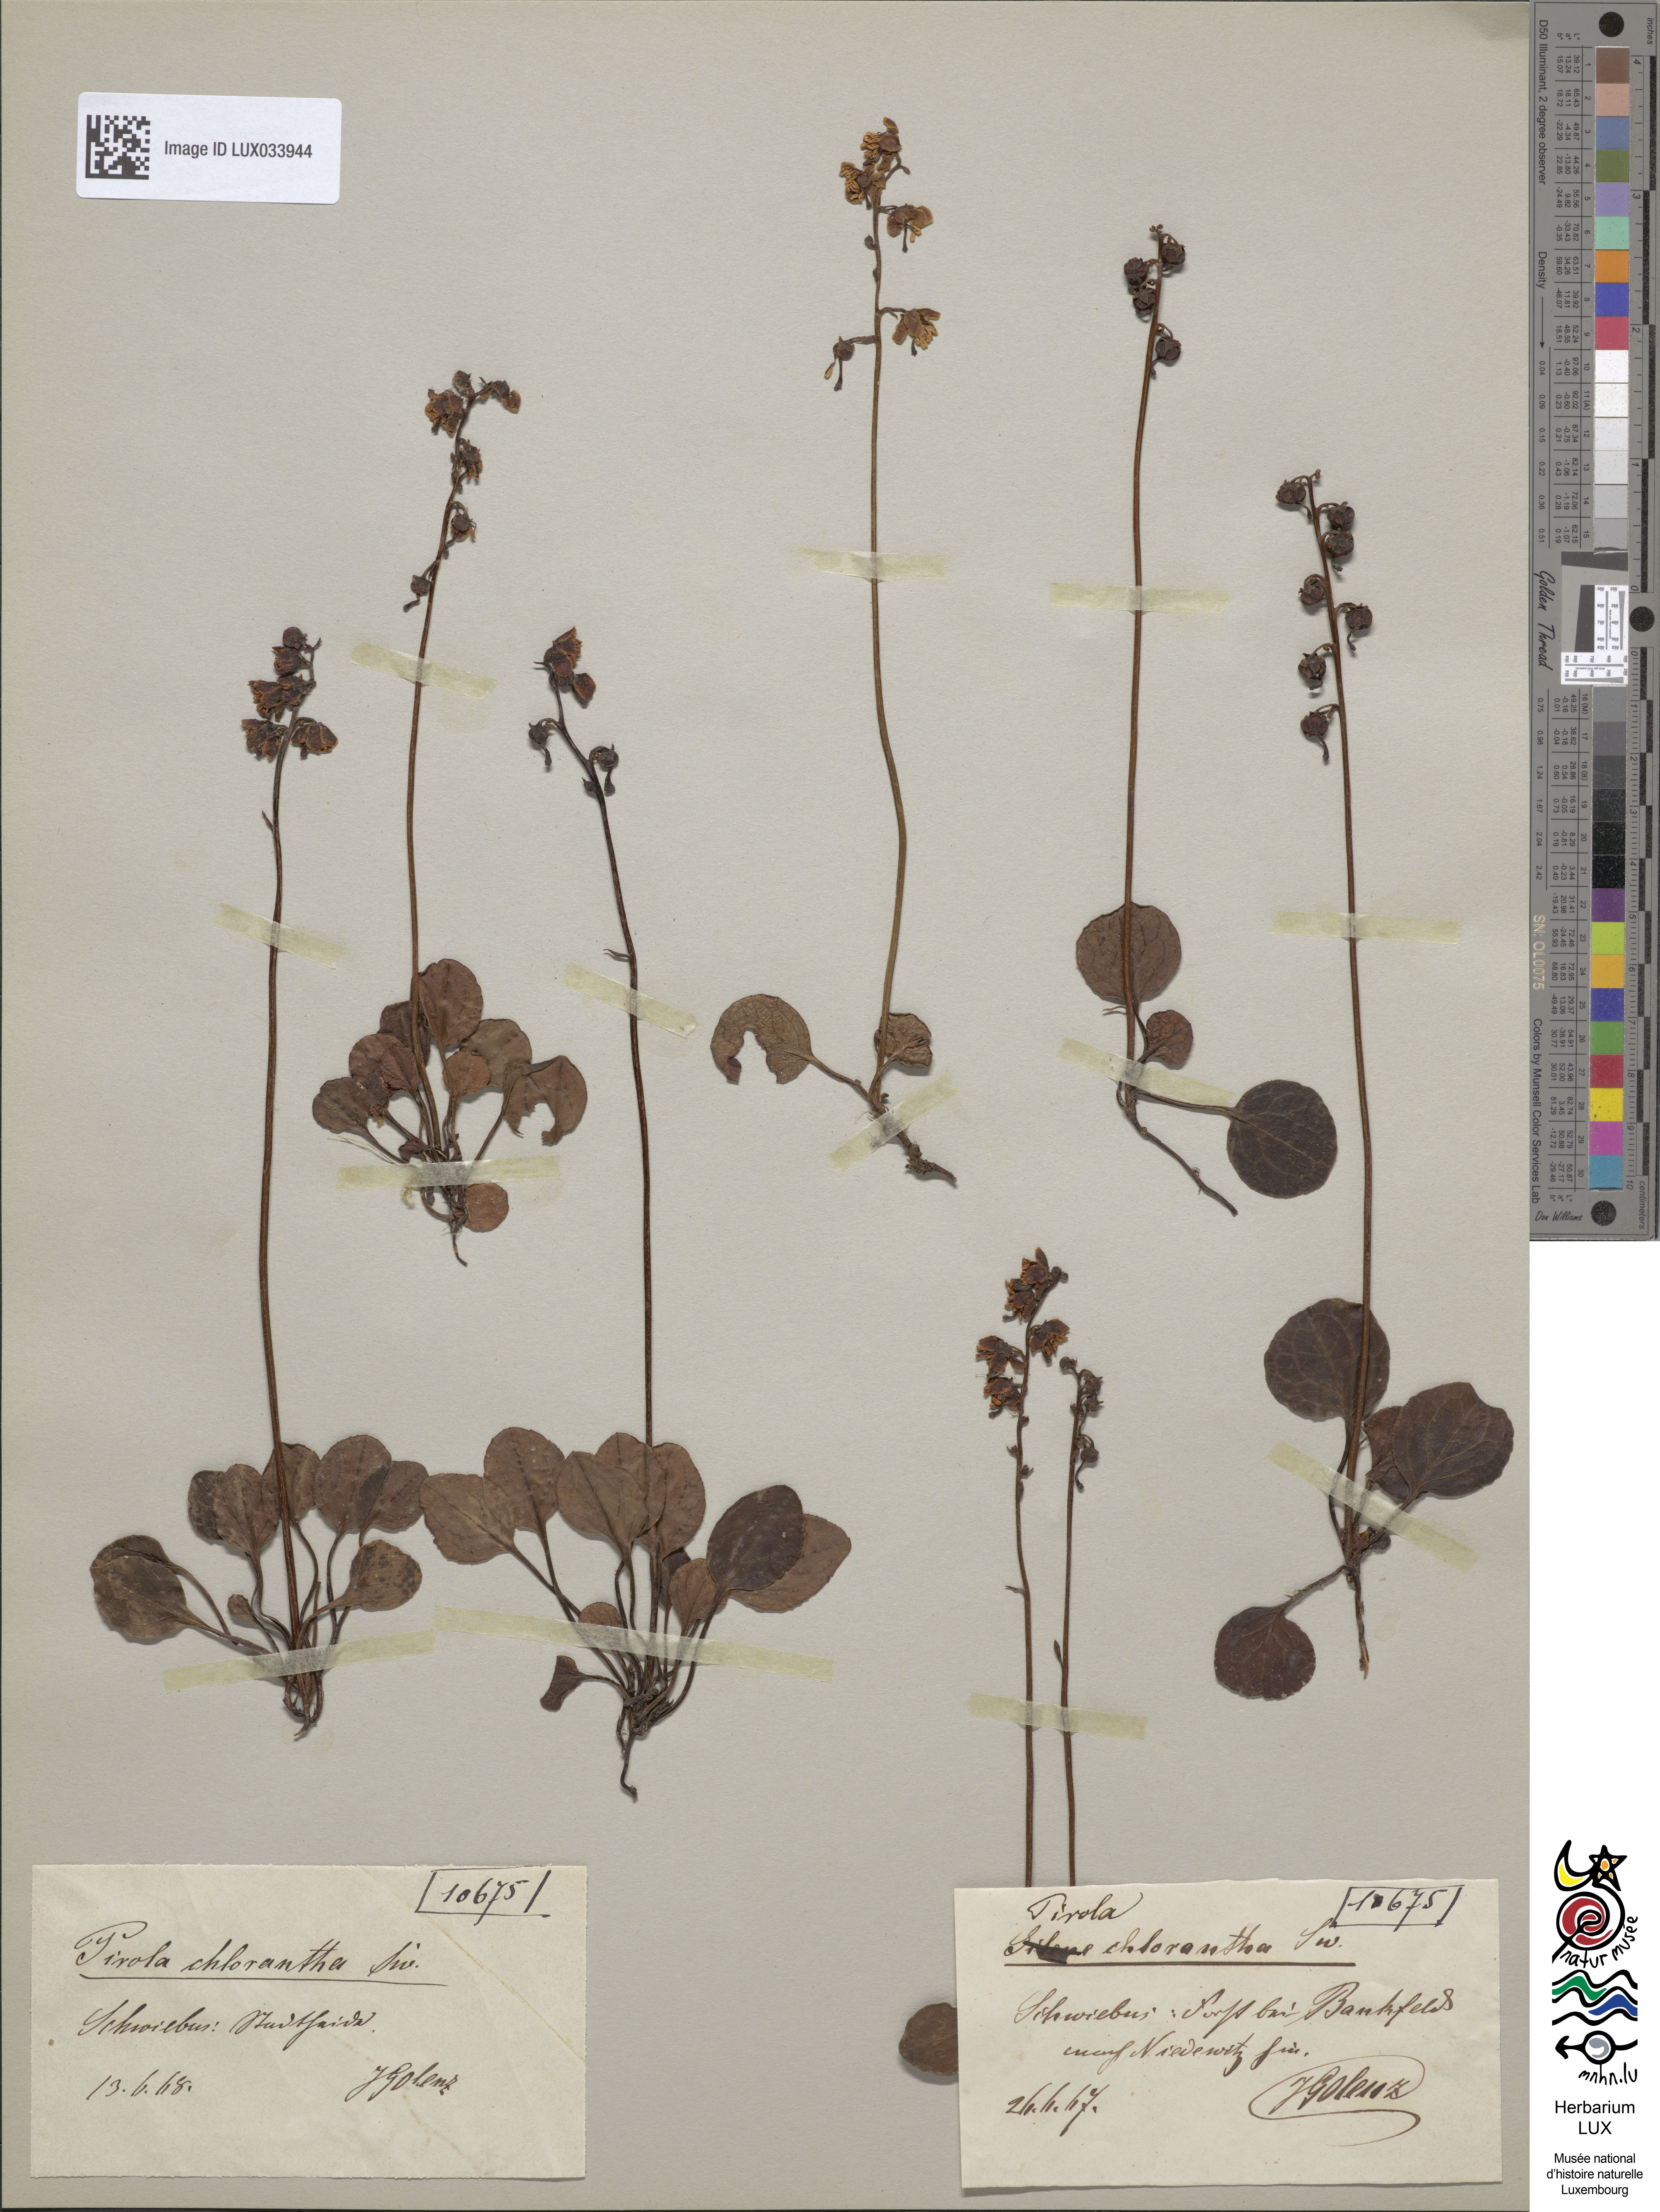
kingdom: Plantae
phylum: Tracheophyta
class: Magnoliopsida
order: Ericales
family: Ericaceae
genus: Pyrola
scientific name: Pyrola chlorantha
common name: Green wintergreen
